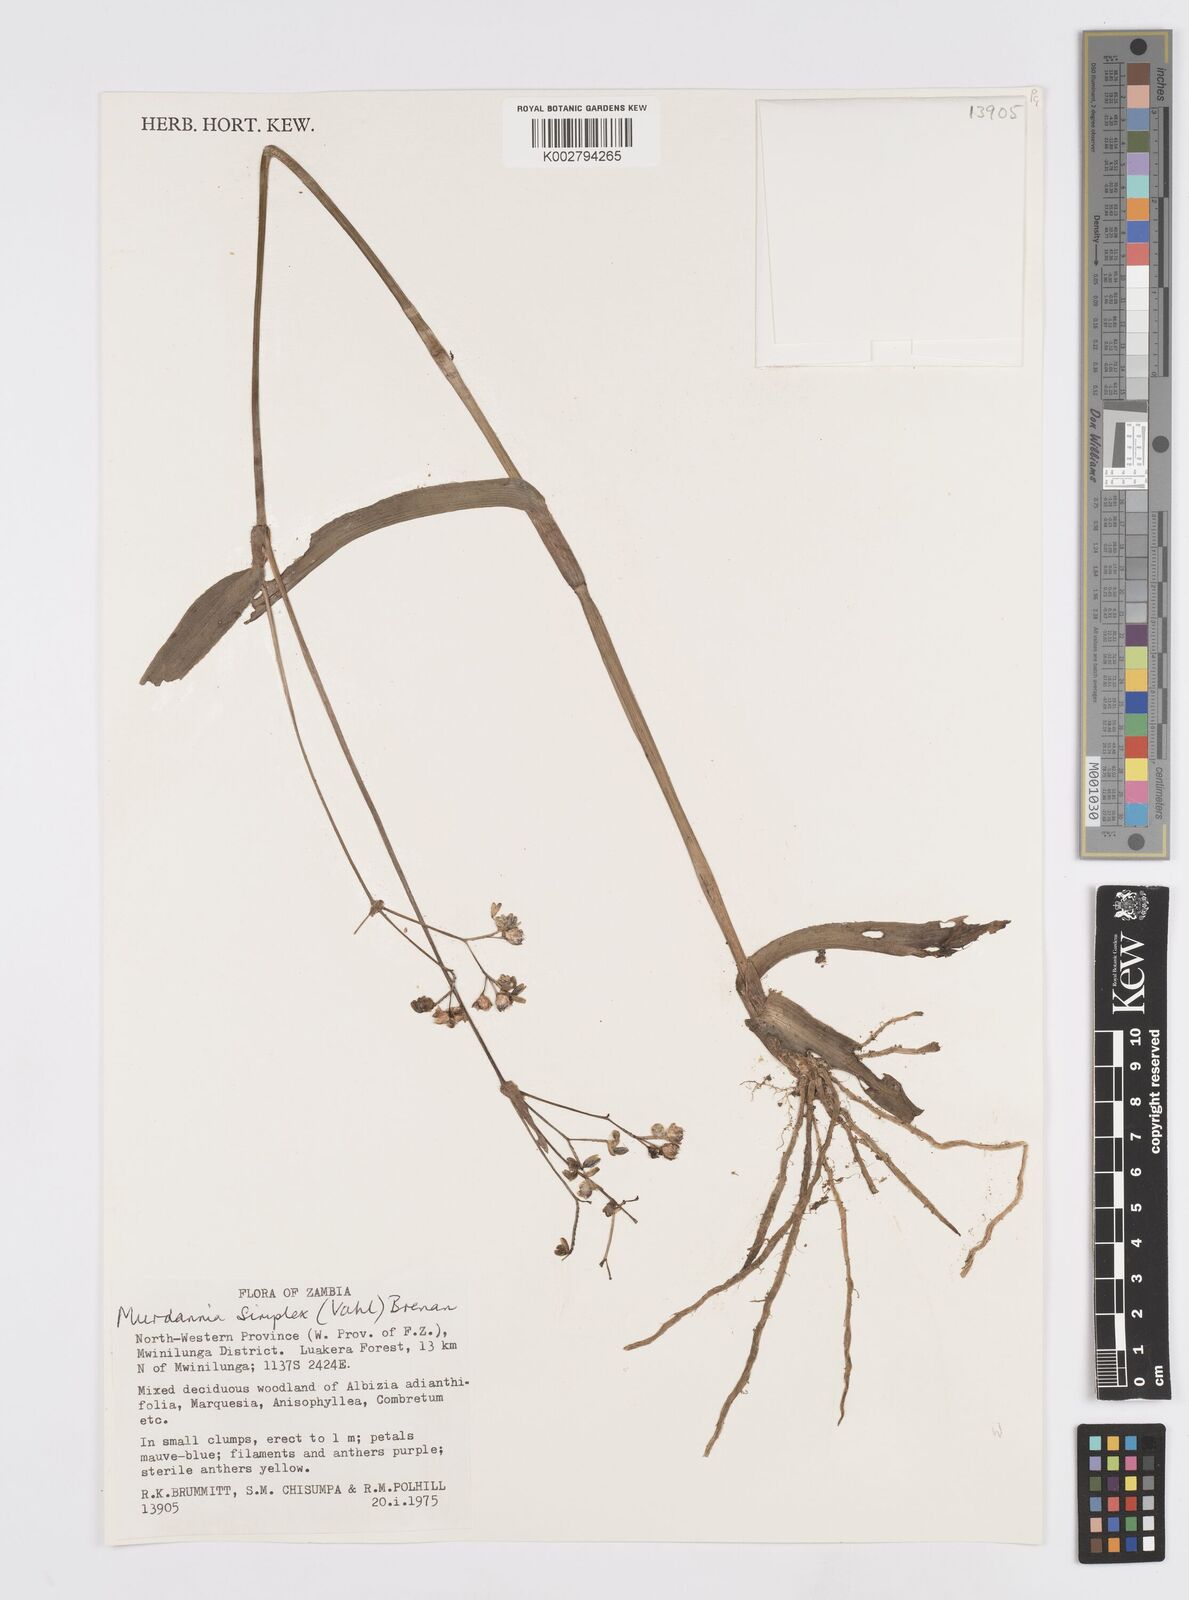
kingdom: Plantae
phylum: Tracheophyta
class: Liliopsida
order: Commelinales
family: Commelinaceae
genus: Murdannia
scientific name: Murdannia simplex
